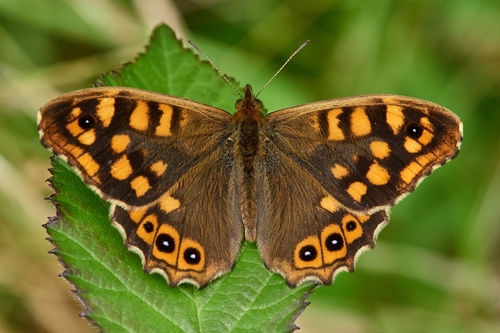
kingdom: Animalia
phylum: Arthropoda
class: Insecta
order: Lepidoptera
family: Nymphalidae
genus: Pararge
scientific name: Pararge aegeria
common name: Speckled wood
